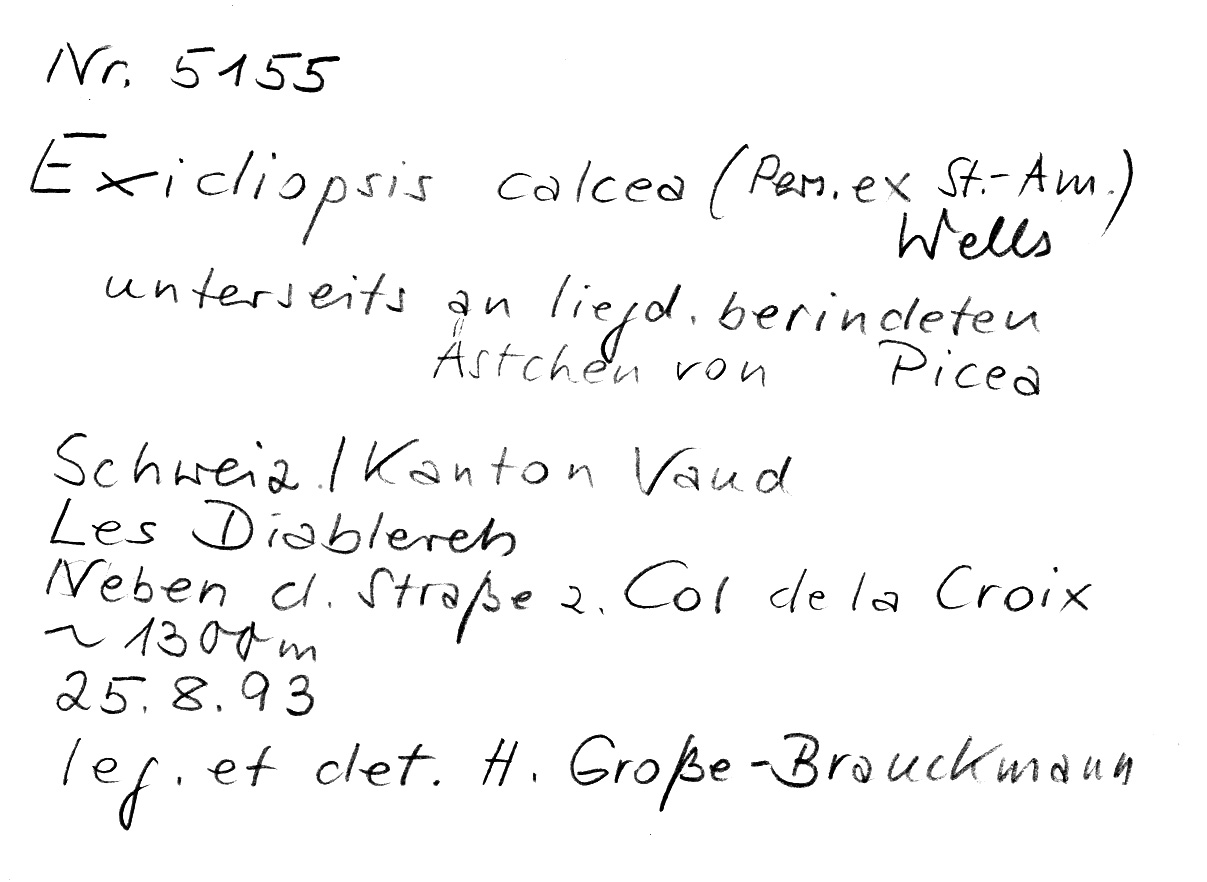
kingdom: Fungi
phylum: Basidiomycota
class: Agaricomycetes
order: Auriculariales
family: Auriculariaceae
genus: Alloexidiopsis
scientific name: Alloexidiopsis calcea
